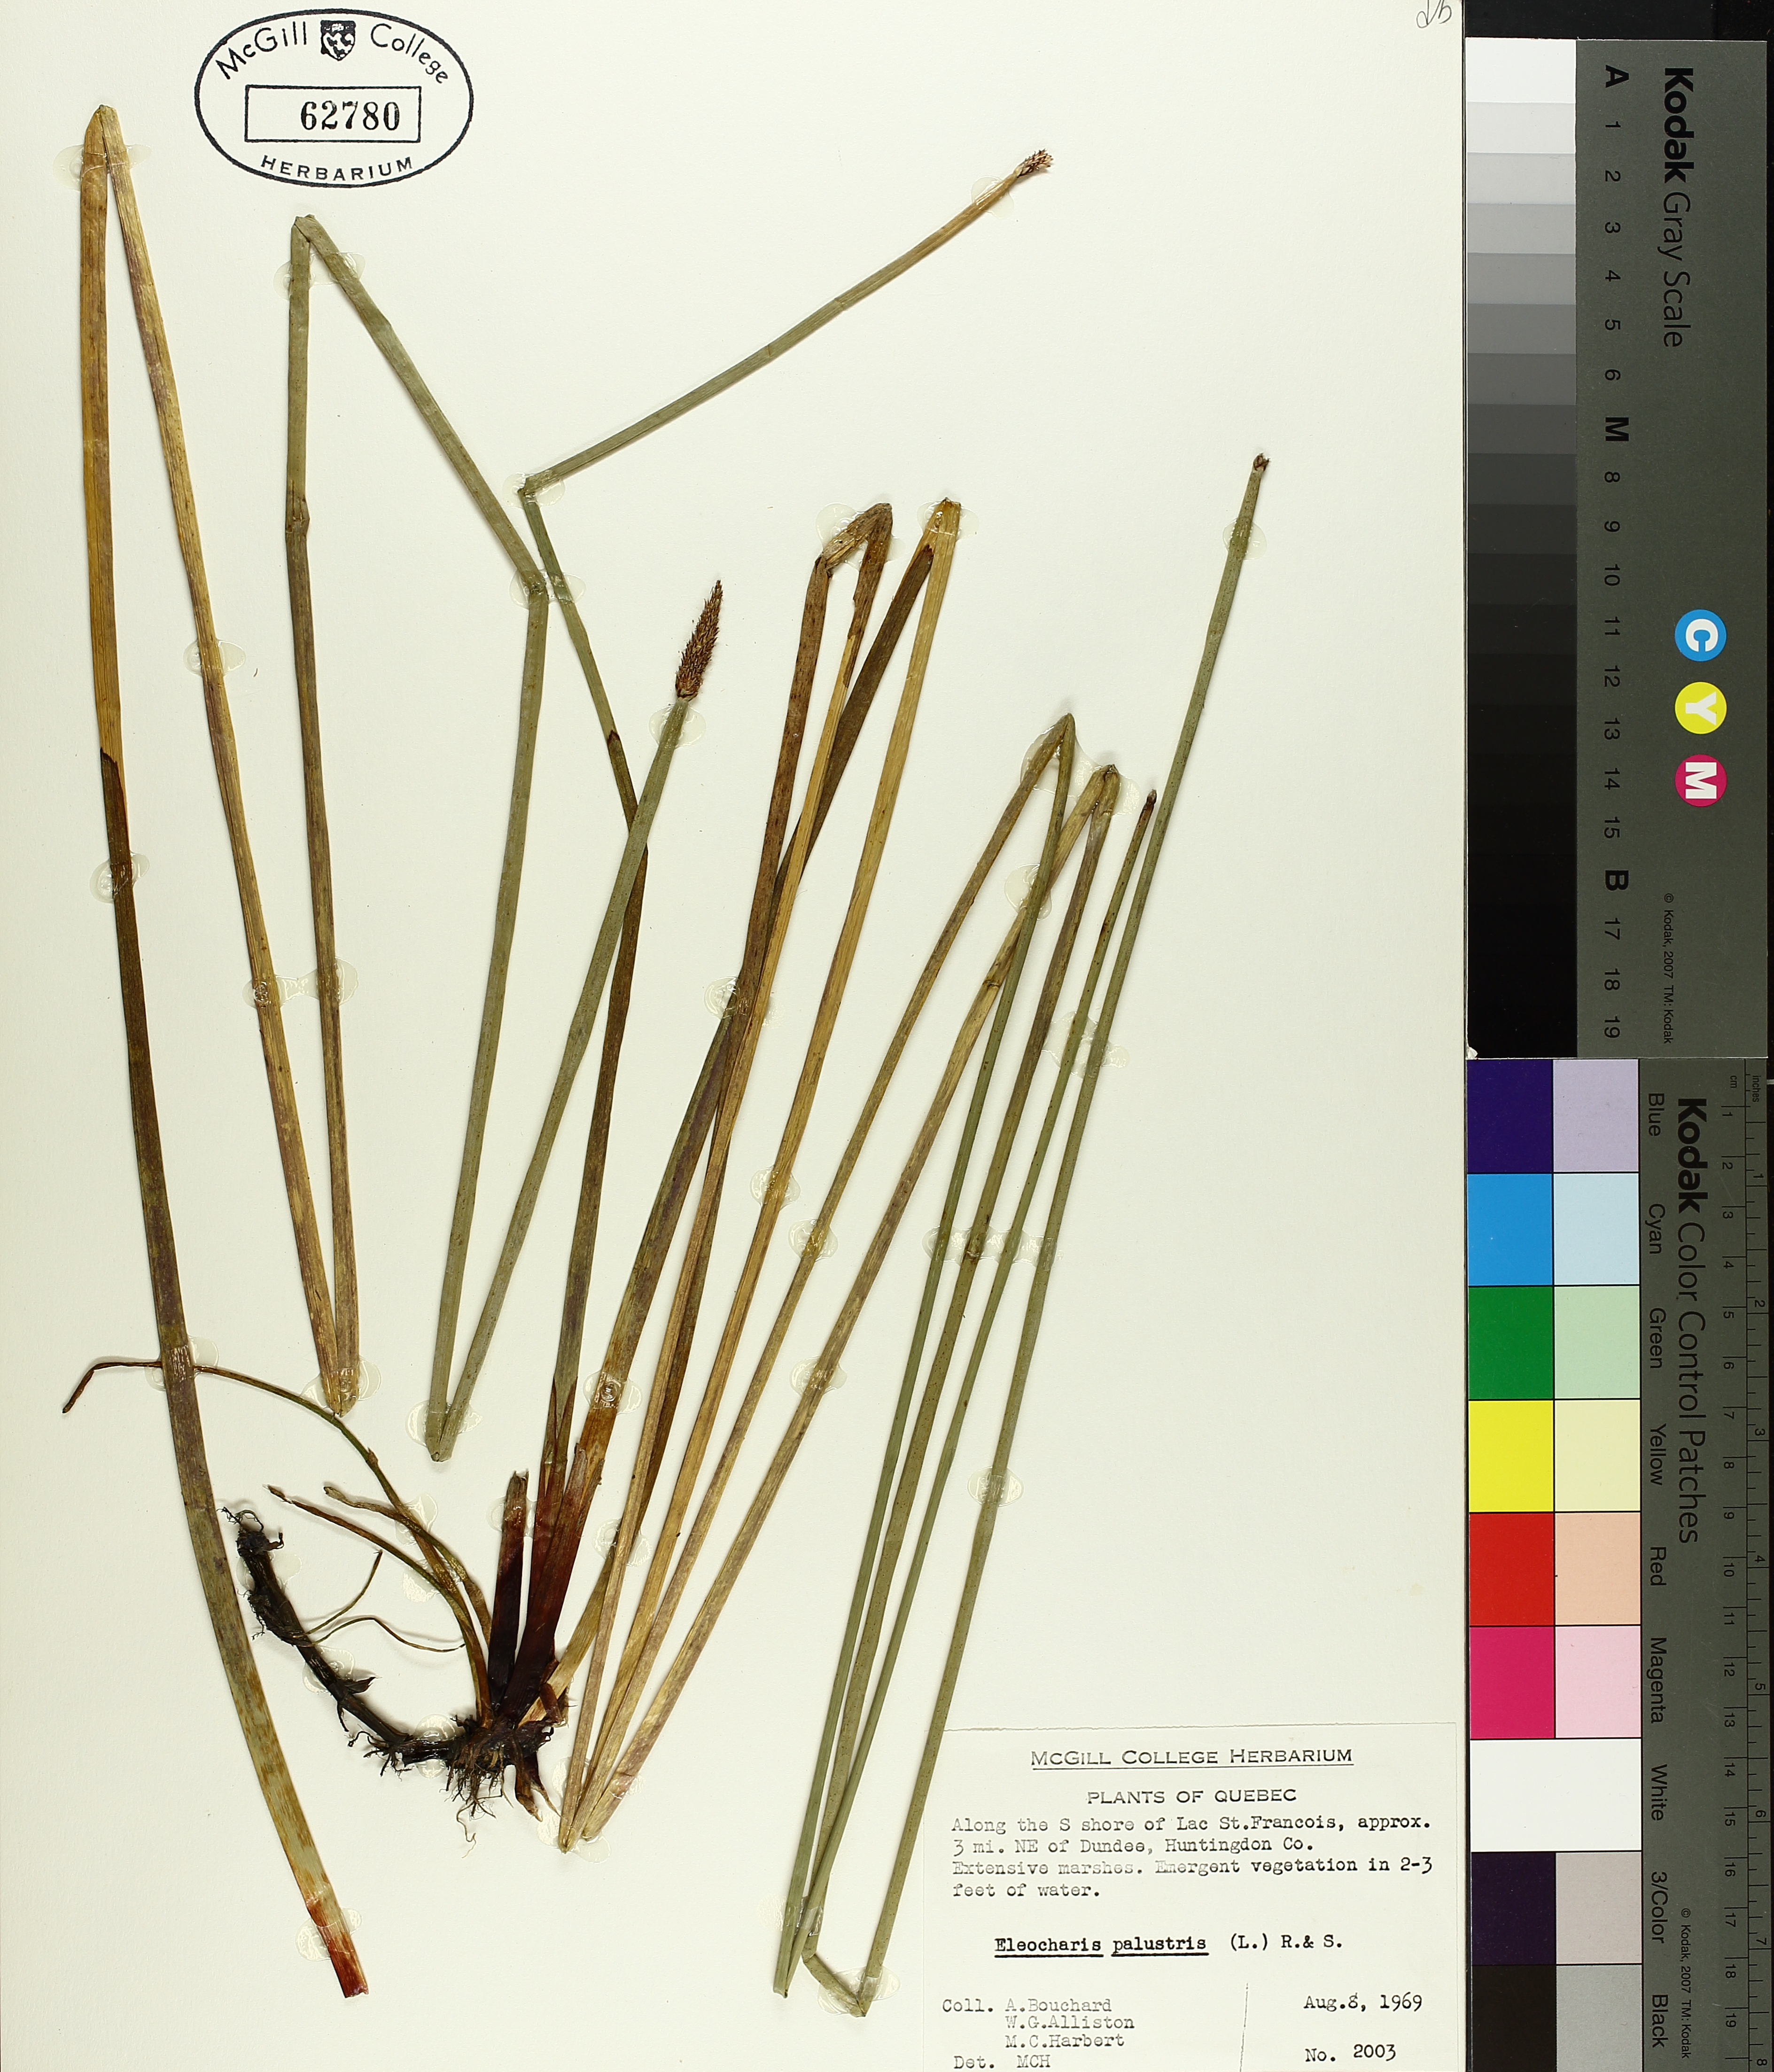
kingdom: Plantae
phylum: Tracheophyta
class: Liliopsida
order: Poales
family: Cyperaceae
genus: Eleocharis
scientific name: Eleocharis palustris
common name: Common spike-rush
